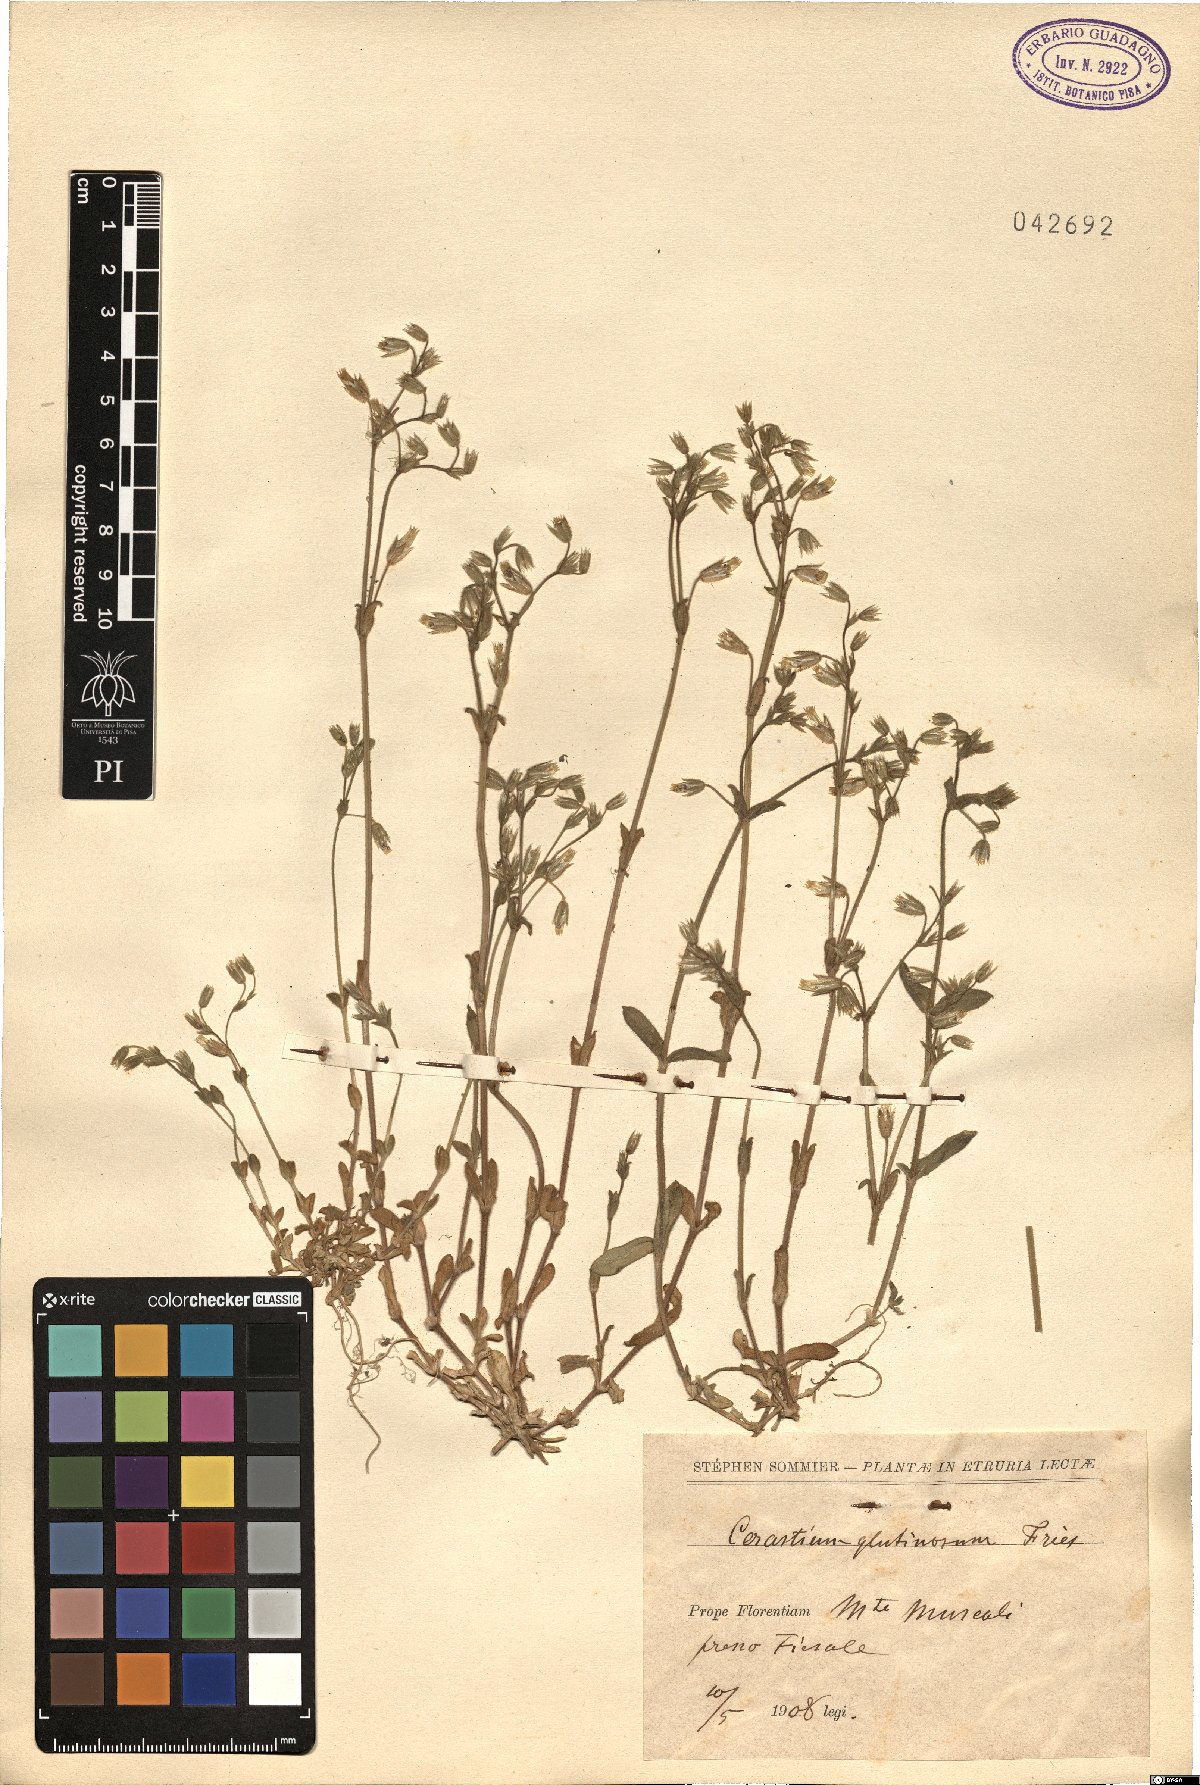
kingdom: Plantae
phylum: Tracheophyta
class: Magnoliopsida
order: Caryophyllales
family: Caryophyllaceae
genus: Cerastium
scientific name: Cerastium glutinosum
